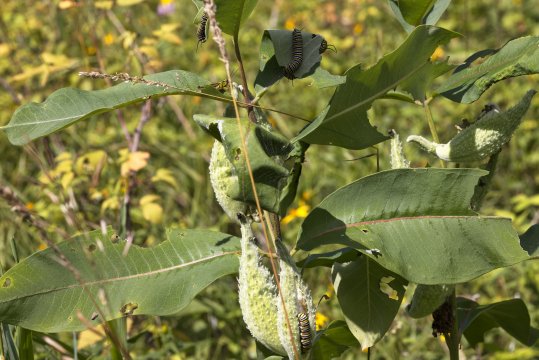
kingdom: Animalia
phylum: Arthropoda
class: Insecta
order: Lepidoptera
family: Nymphalidae
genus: Danaus
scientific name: Danaus plexippus
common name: Monarch
